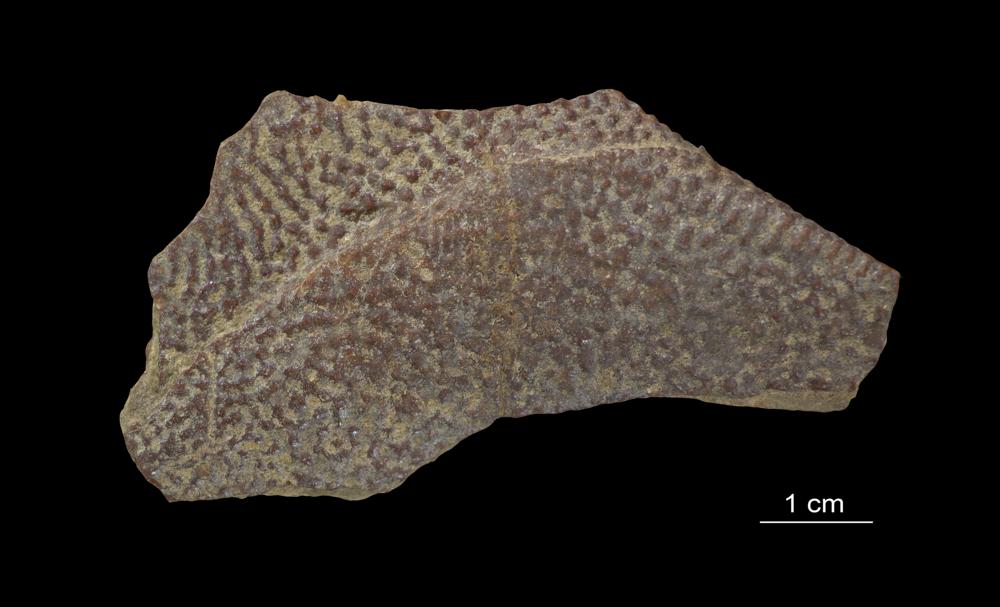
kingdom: Animalia
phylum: Chordata
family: Asterolepididae
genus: Asterolepis
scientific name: Asterolepis ornata
